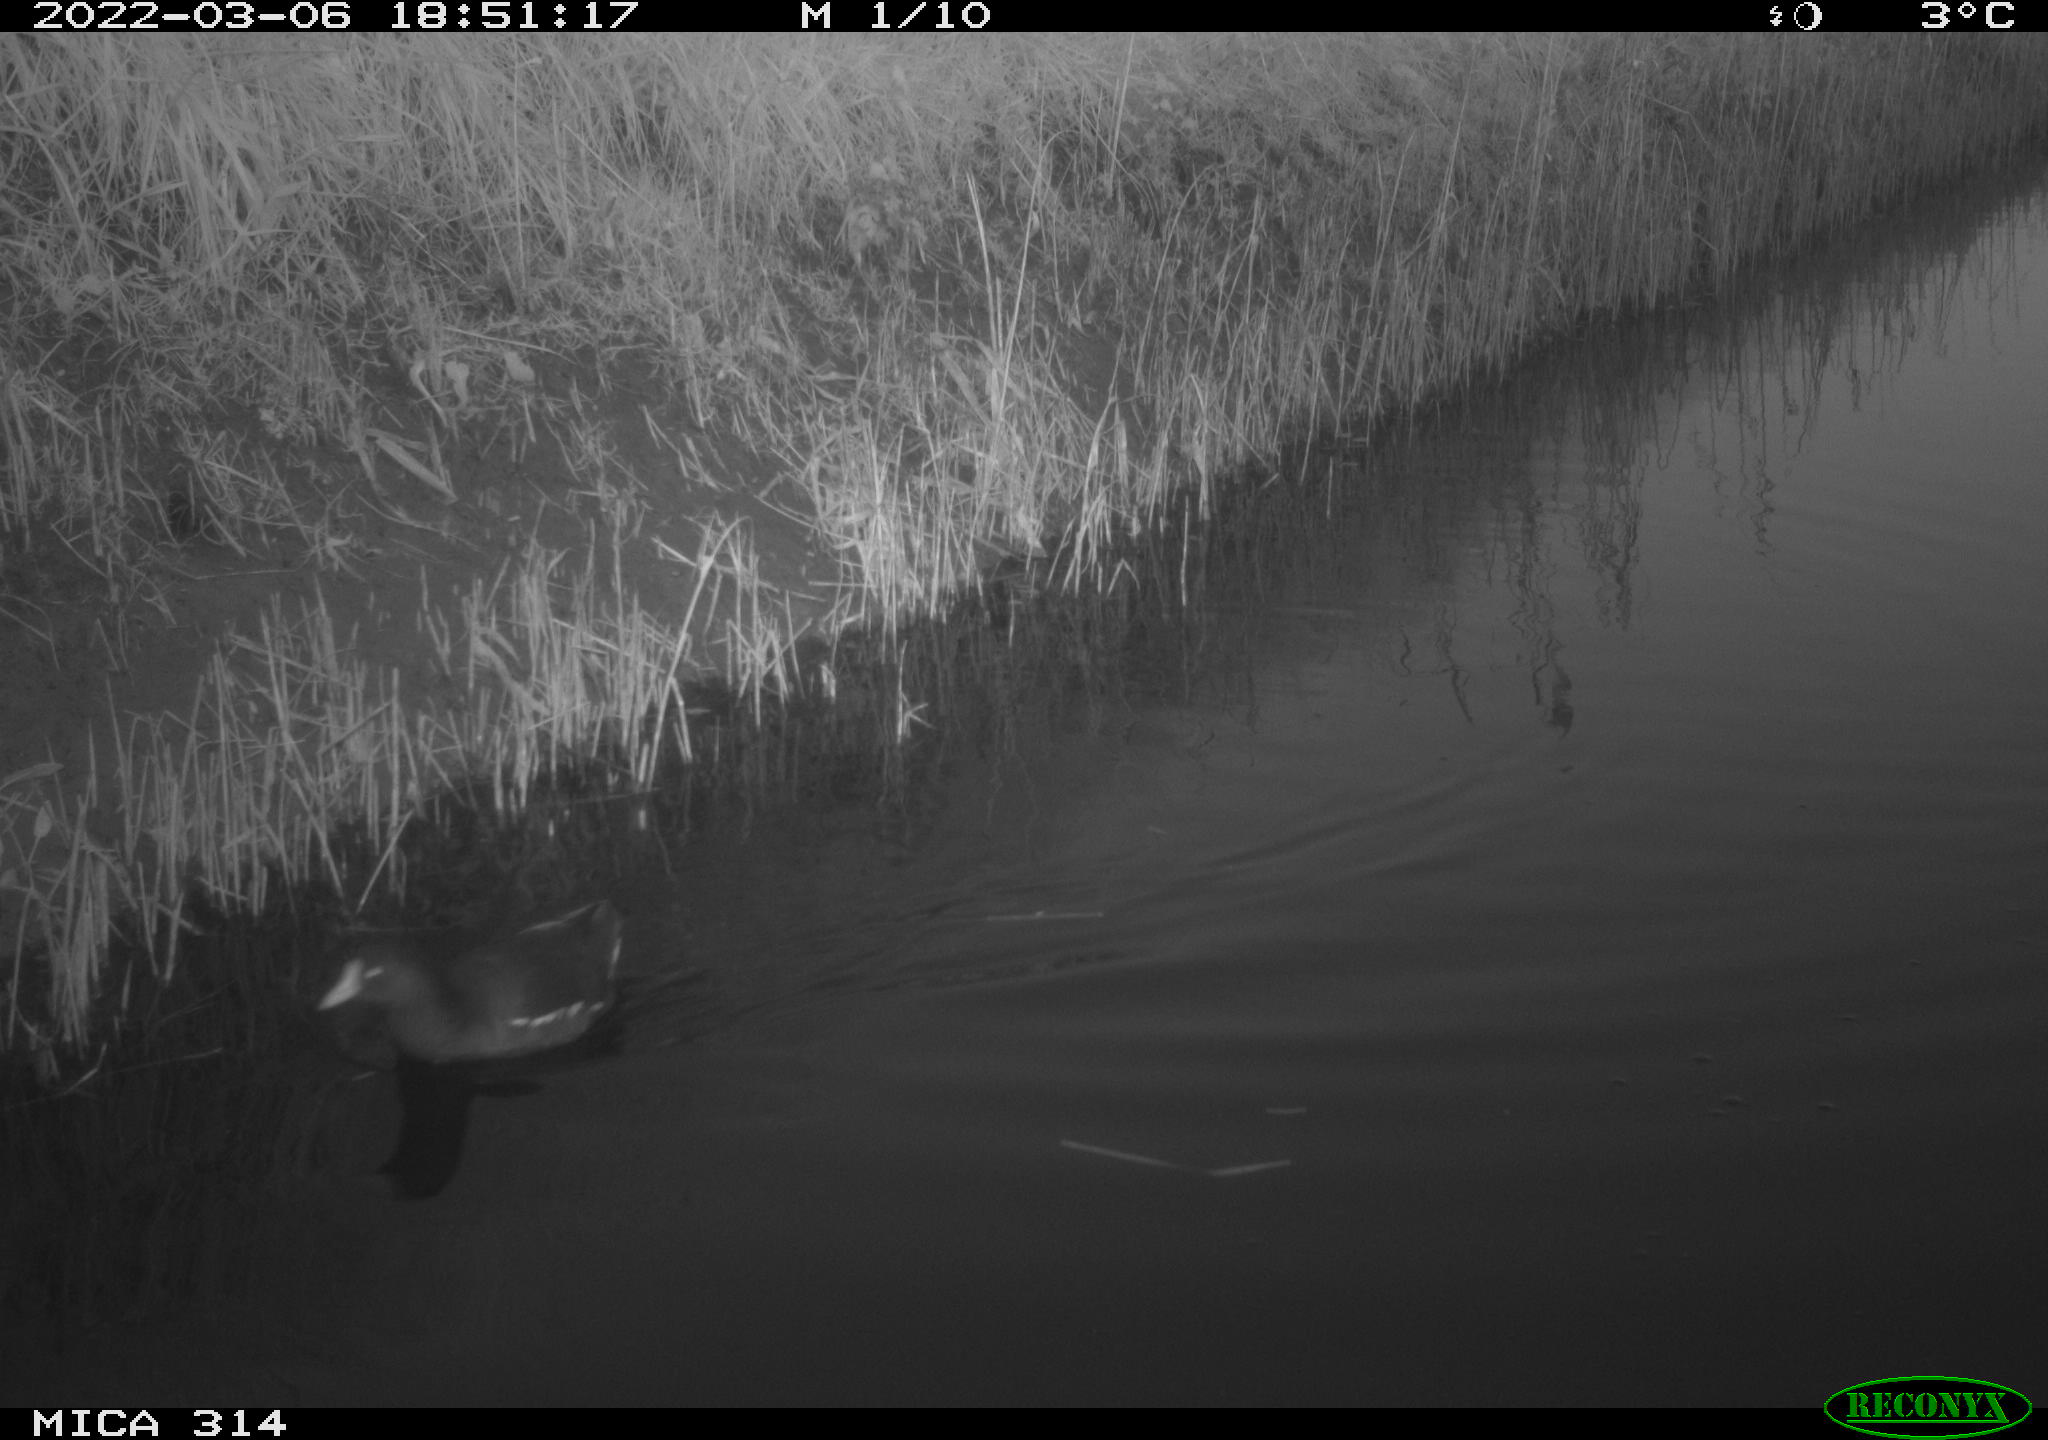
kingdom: Animalia
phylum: Chordata
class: Aves
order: Gruiformes
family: Rallidae
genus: Gallinula
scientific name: Gallinula chloropus
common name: Common moorhen
